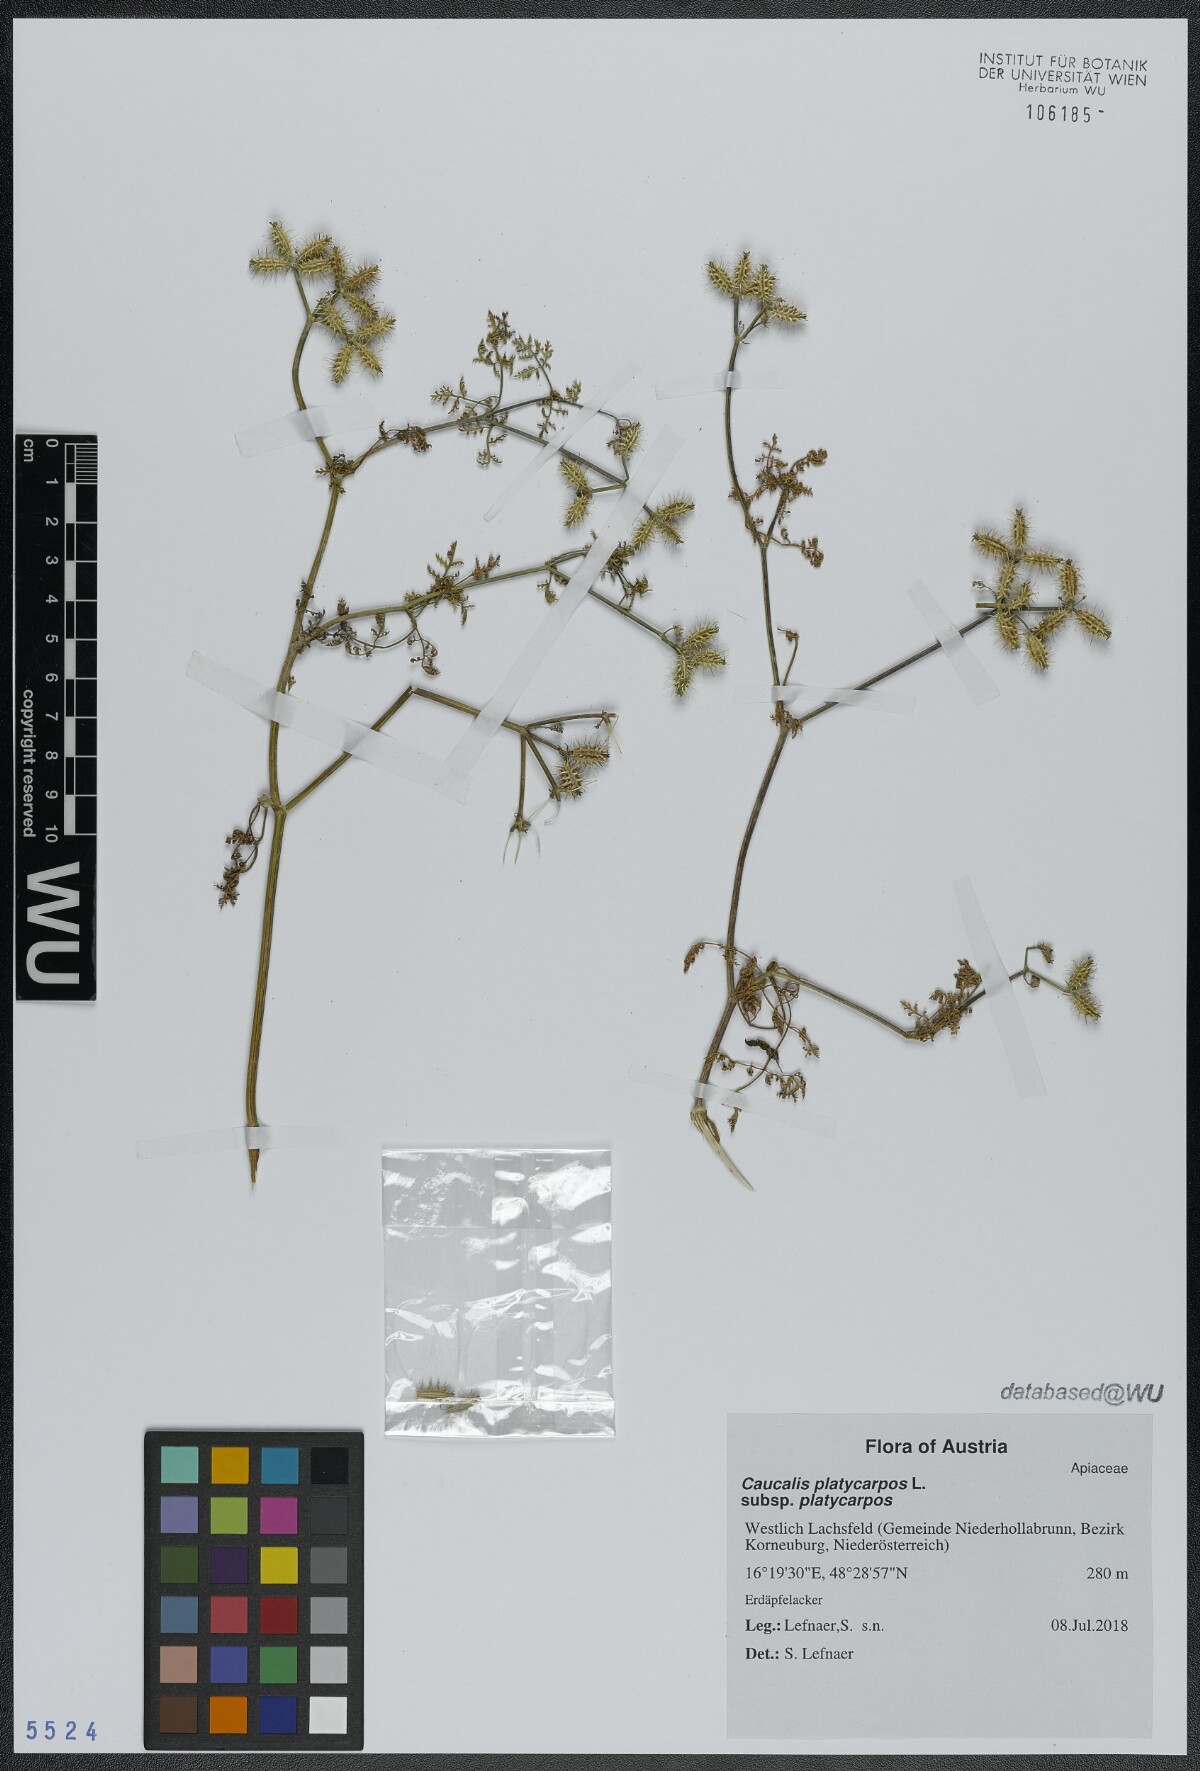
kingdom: Plantae
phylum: Tracheophyta
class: Magnoliopsida
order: Apiales
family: Apiaceae
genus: Caucalis
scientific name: Caucalis platycarpos
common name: Small bur-parsley
